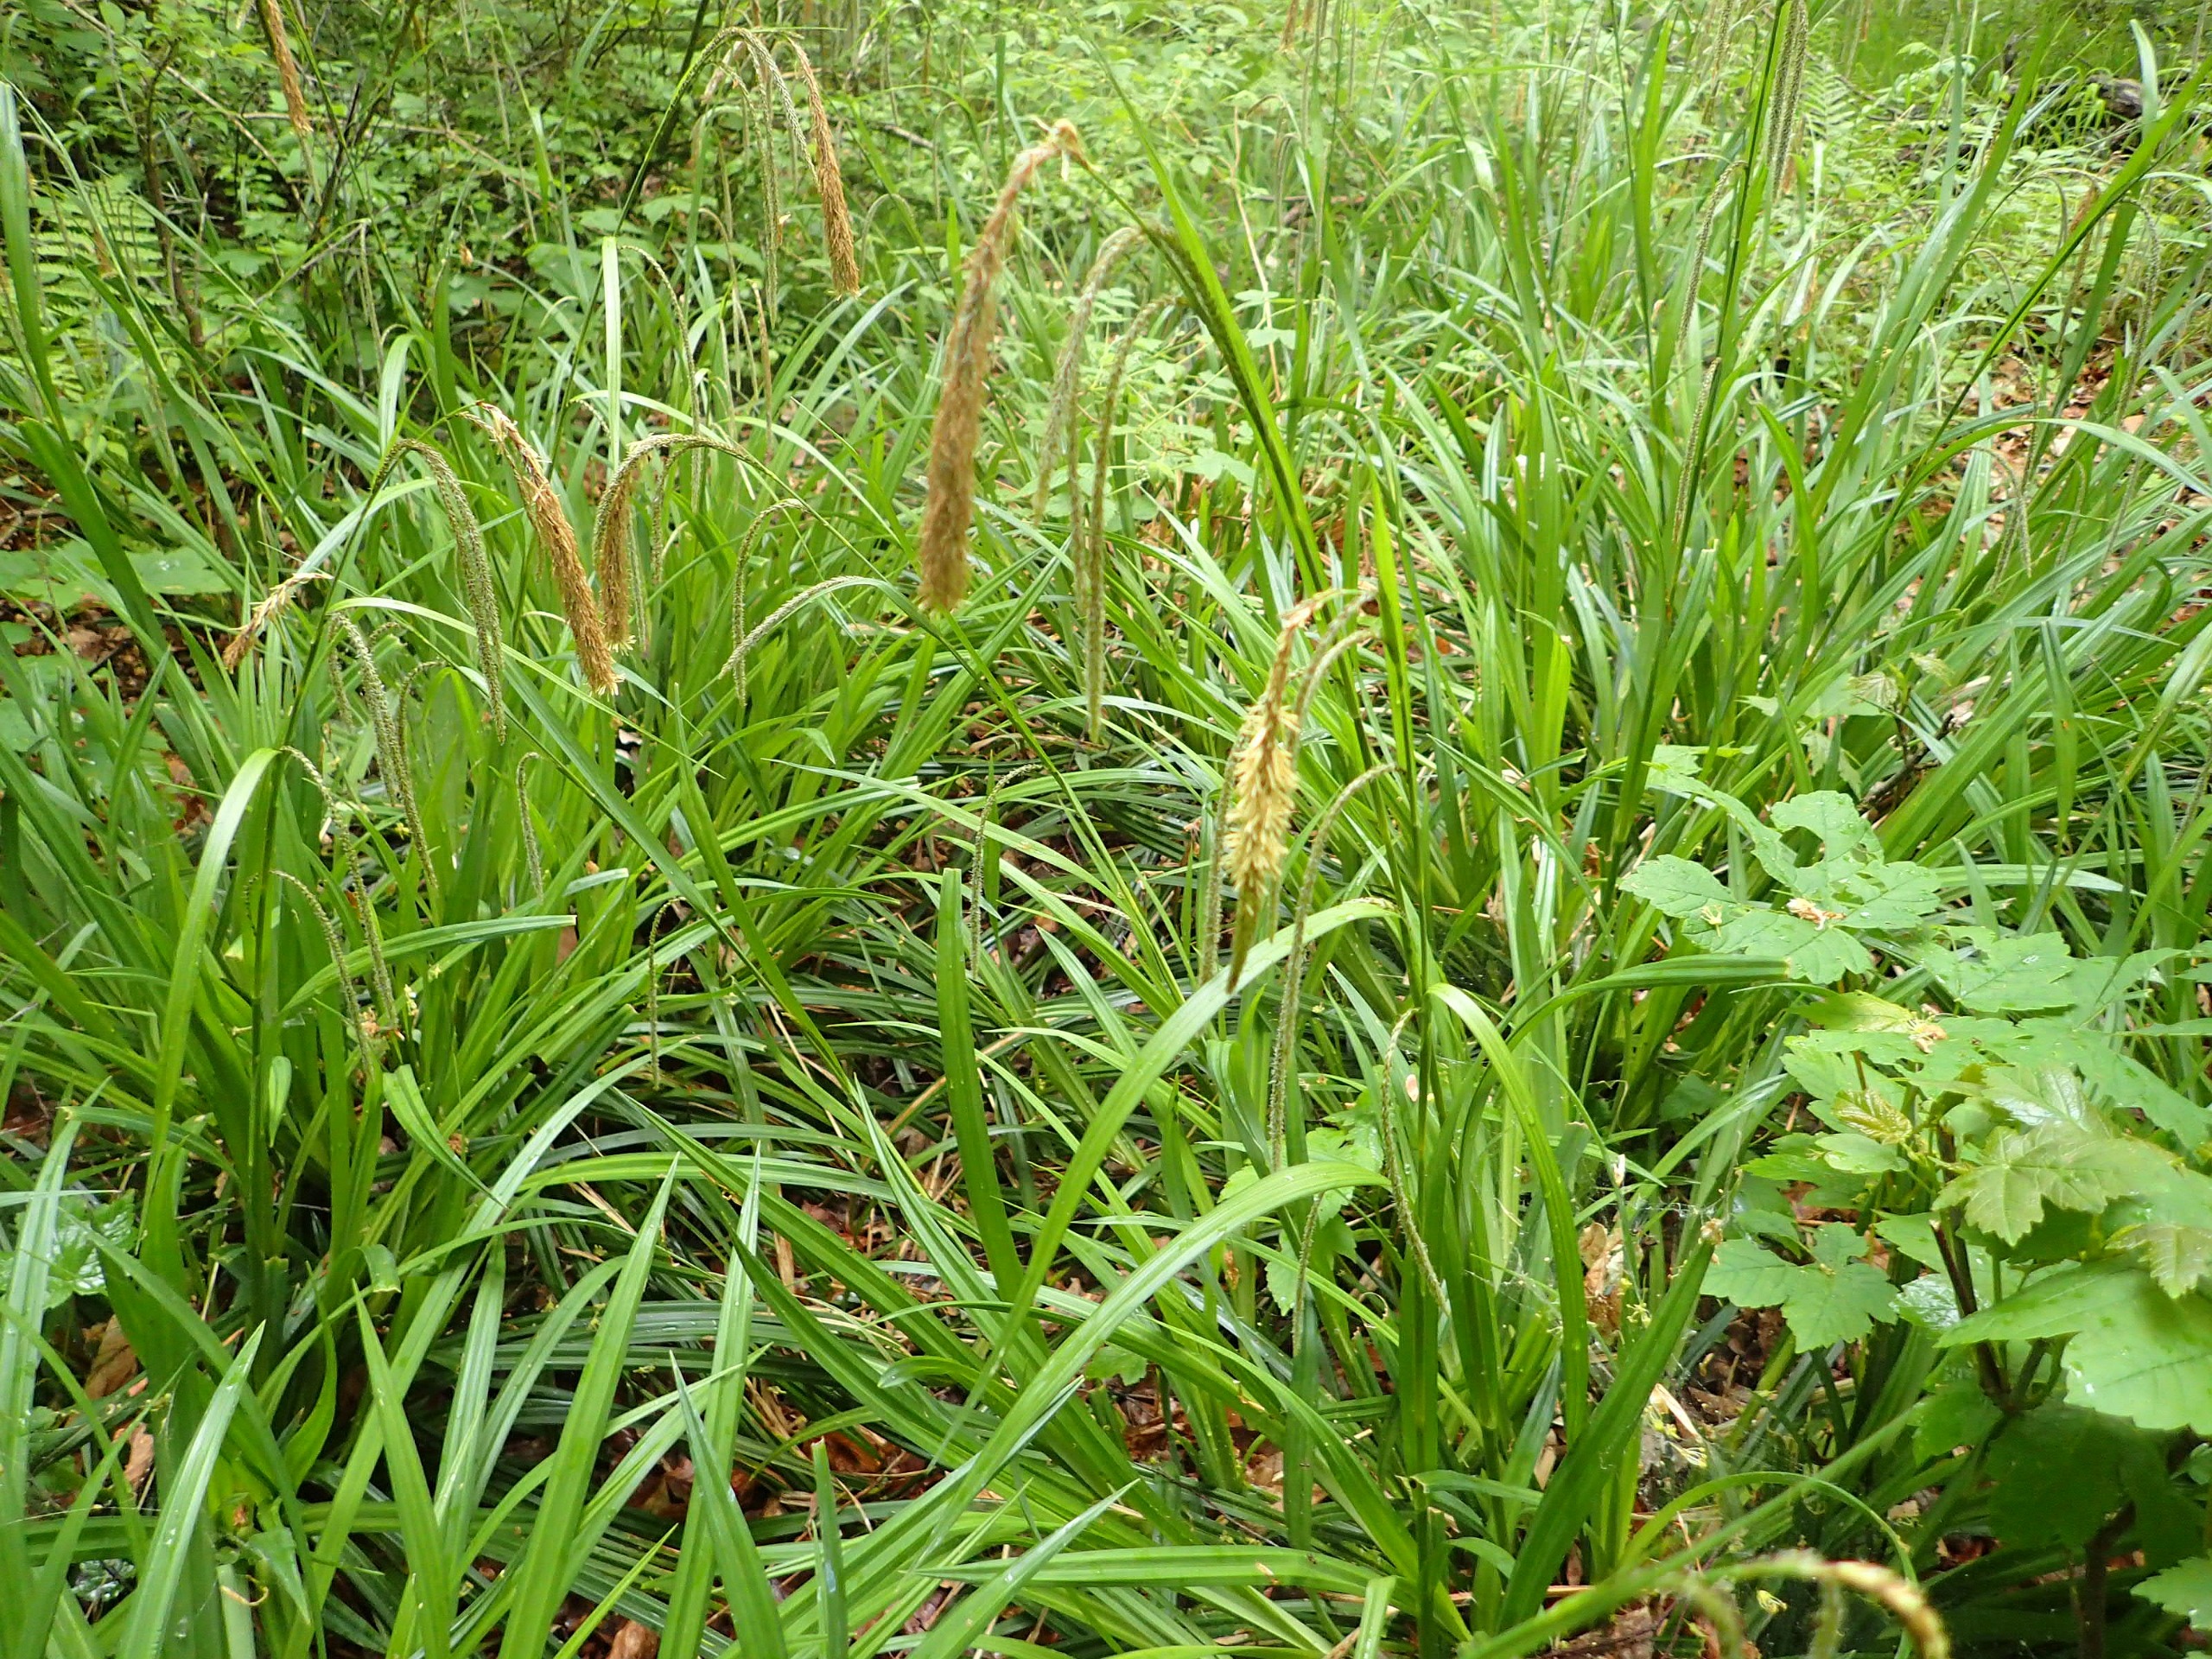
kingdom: Plantae
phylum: Tracheophyta
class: Liliopsida
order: Poales
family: Cyperaceae
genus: Carex
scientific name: Carex pendula
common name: Kæmpe-star
